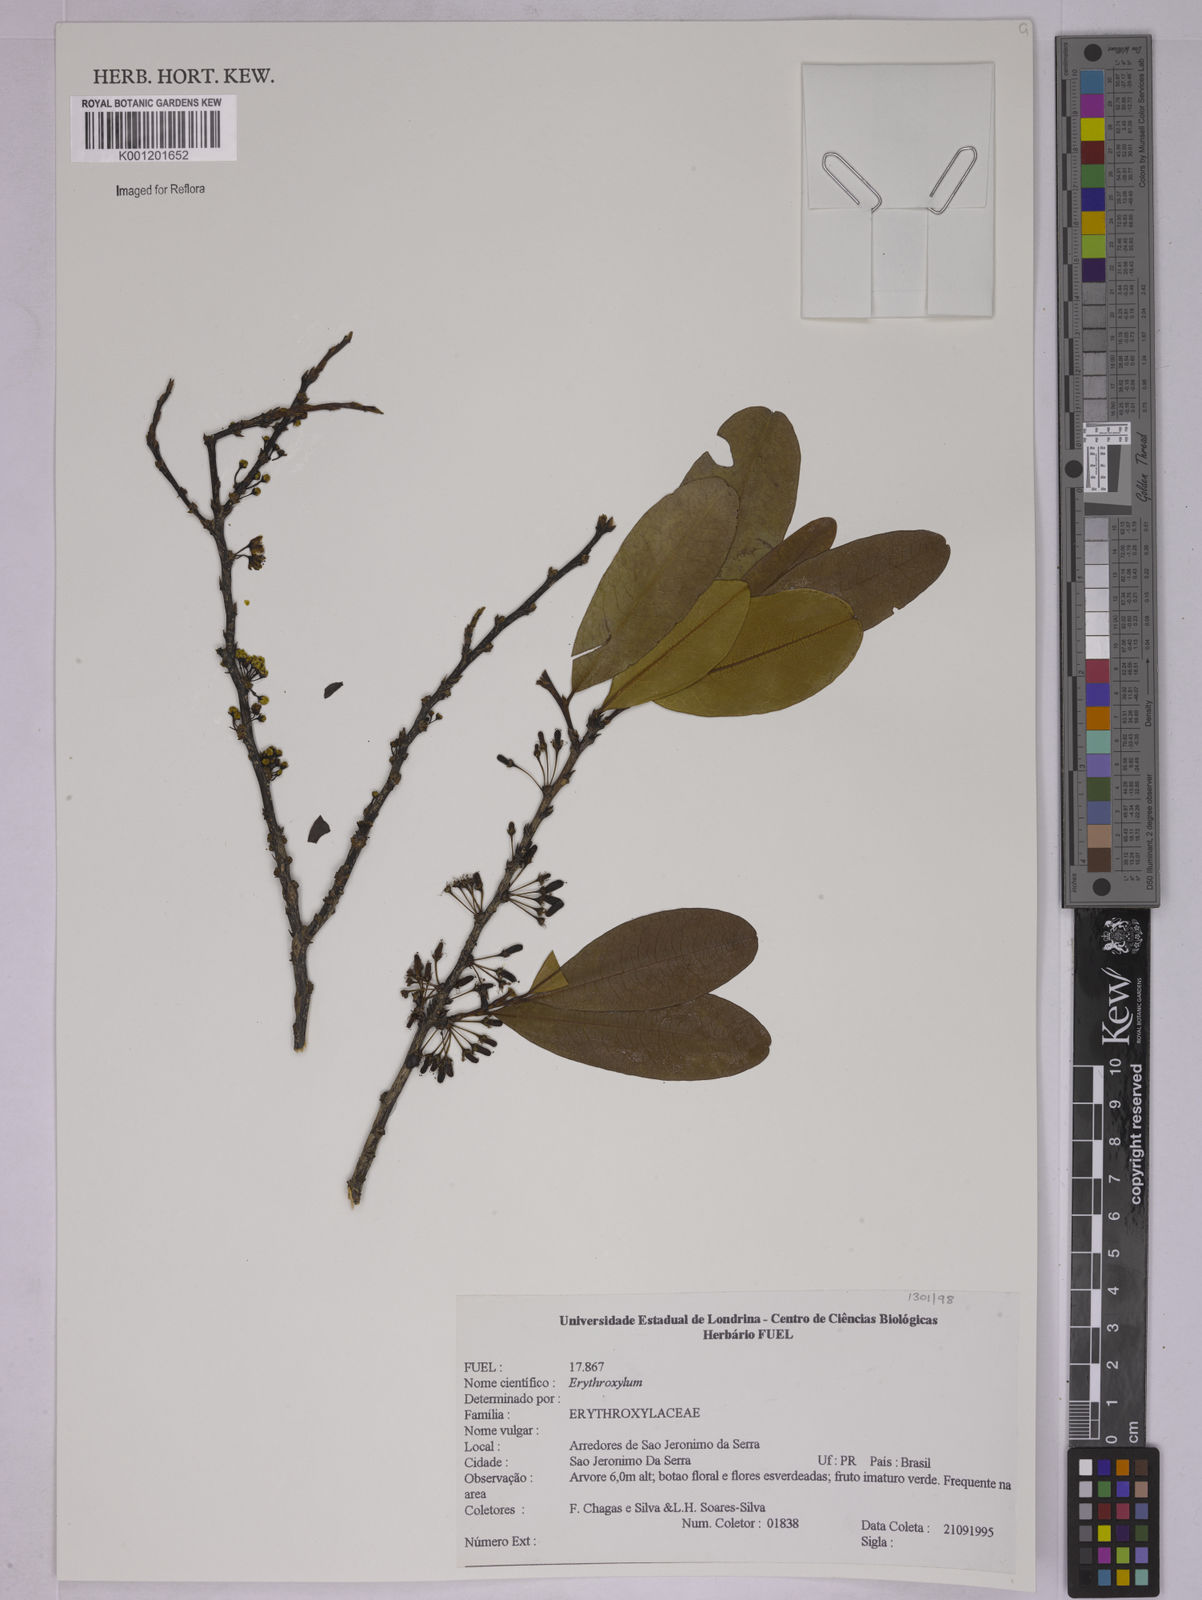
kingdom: Plantae
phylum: Tracheophyta
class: Magnoliopsida
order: Malpighiales
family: Erythroxylaceae
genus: Erythroxylum
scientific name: Erythroxylum
